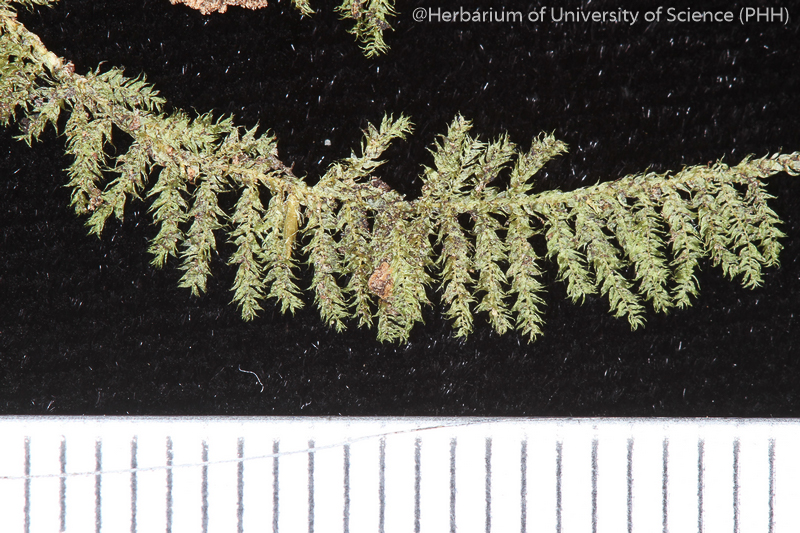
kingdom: Plantae
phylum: Bryophyta
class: Bryopsida
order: Hypnales
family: Hypnaceae
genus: Vesicularia
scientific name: Vesicularia demangei
